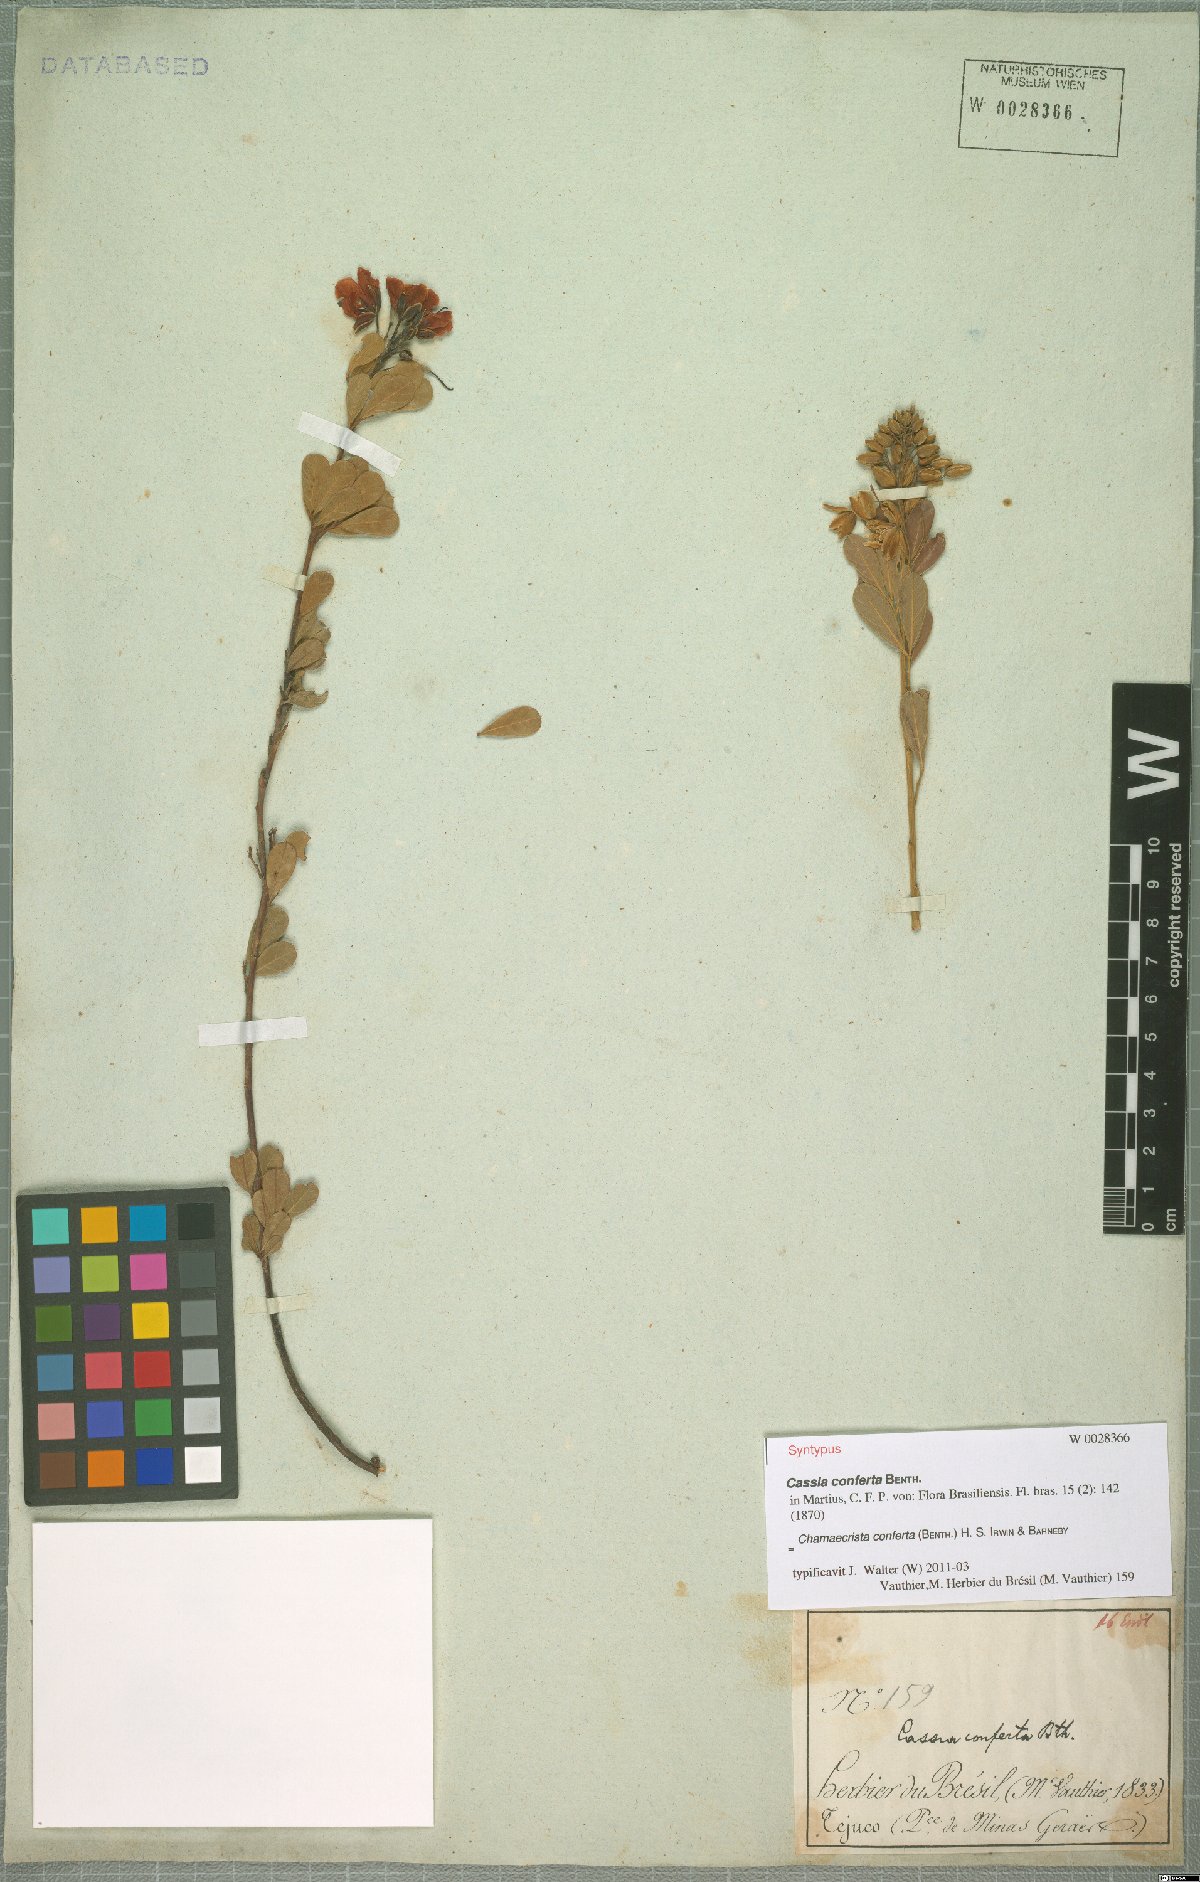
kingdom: Plantae
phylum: Tracheophyta
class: Magnoliopsida
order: Fabales
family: Fabaceae
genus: Chamaecrista
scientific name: Chamaecrista conferta
